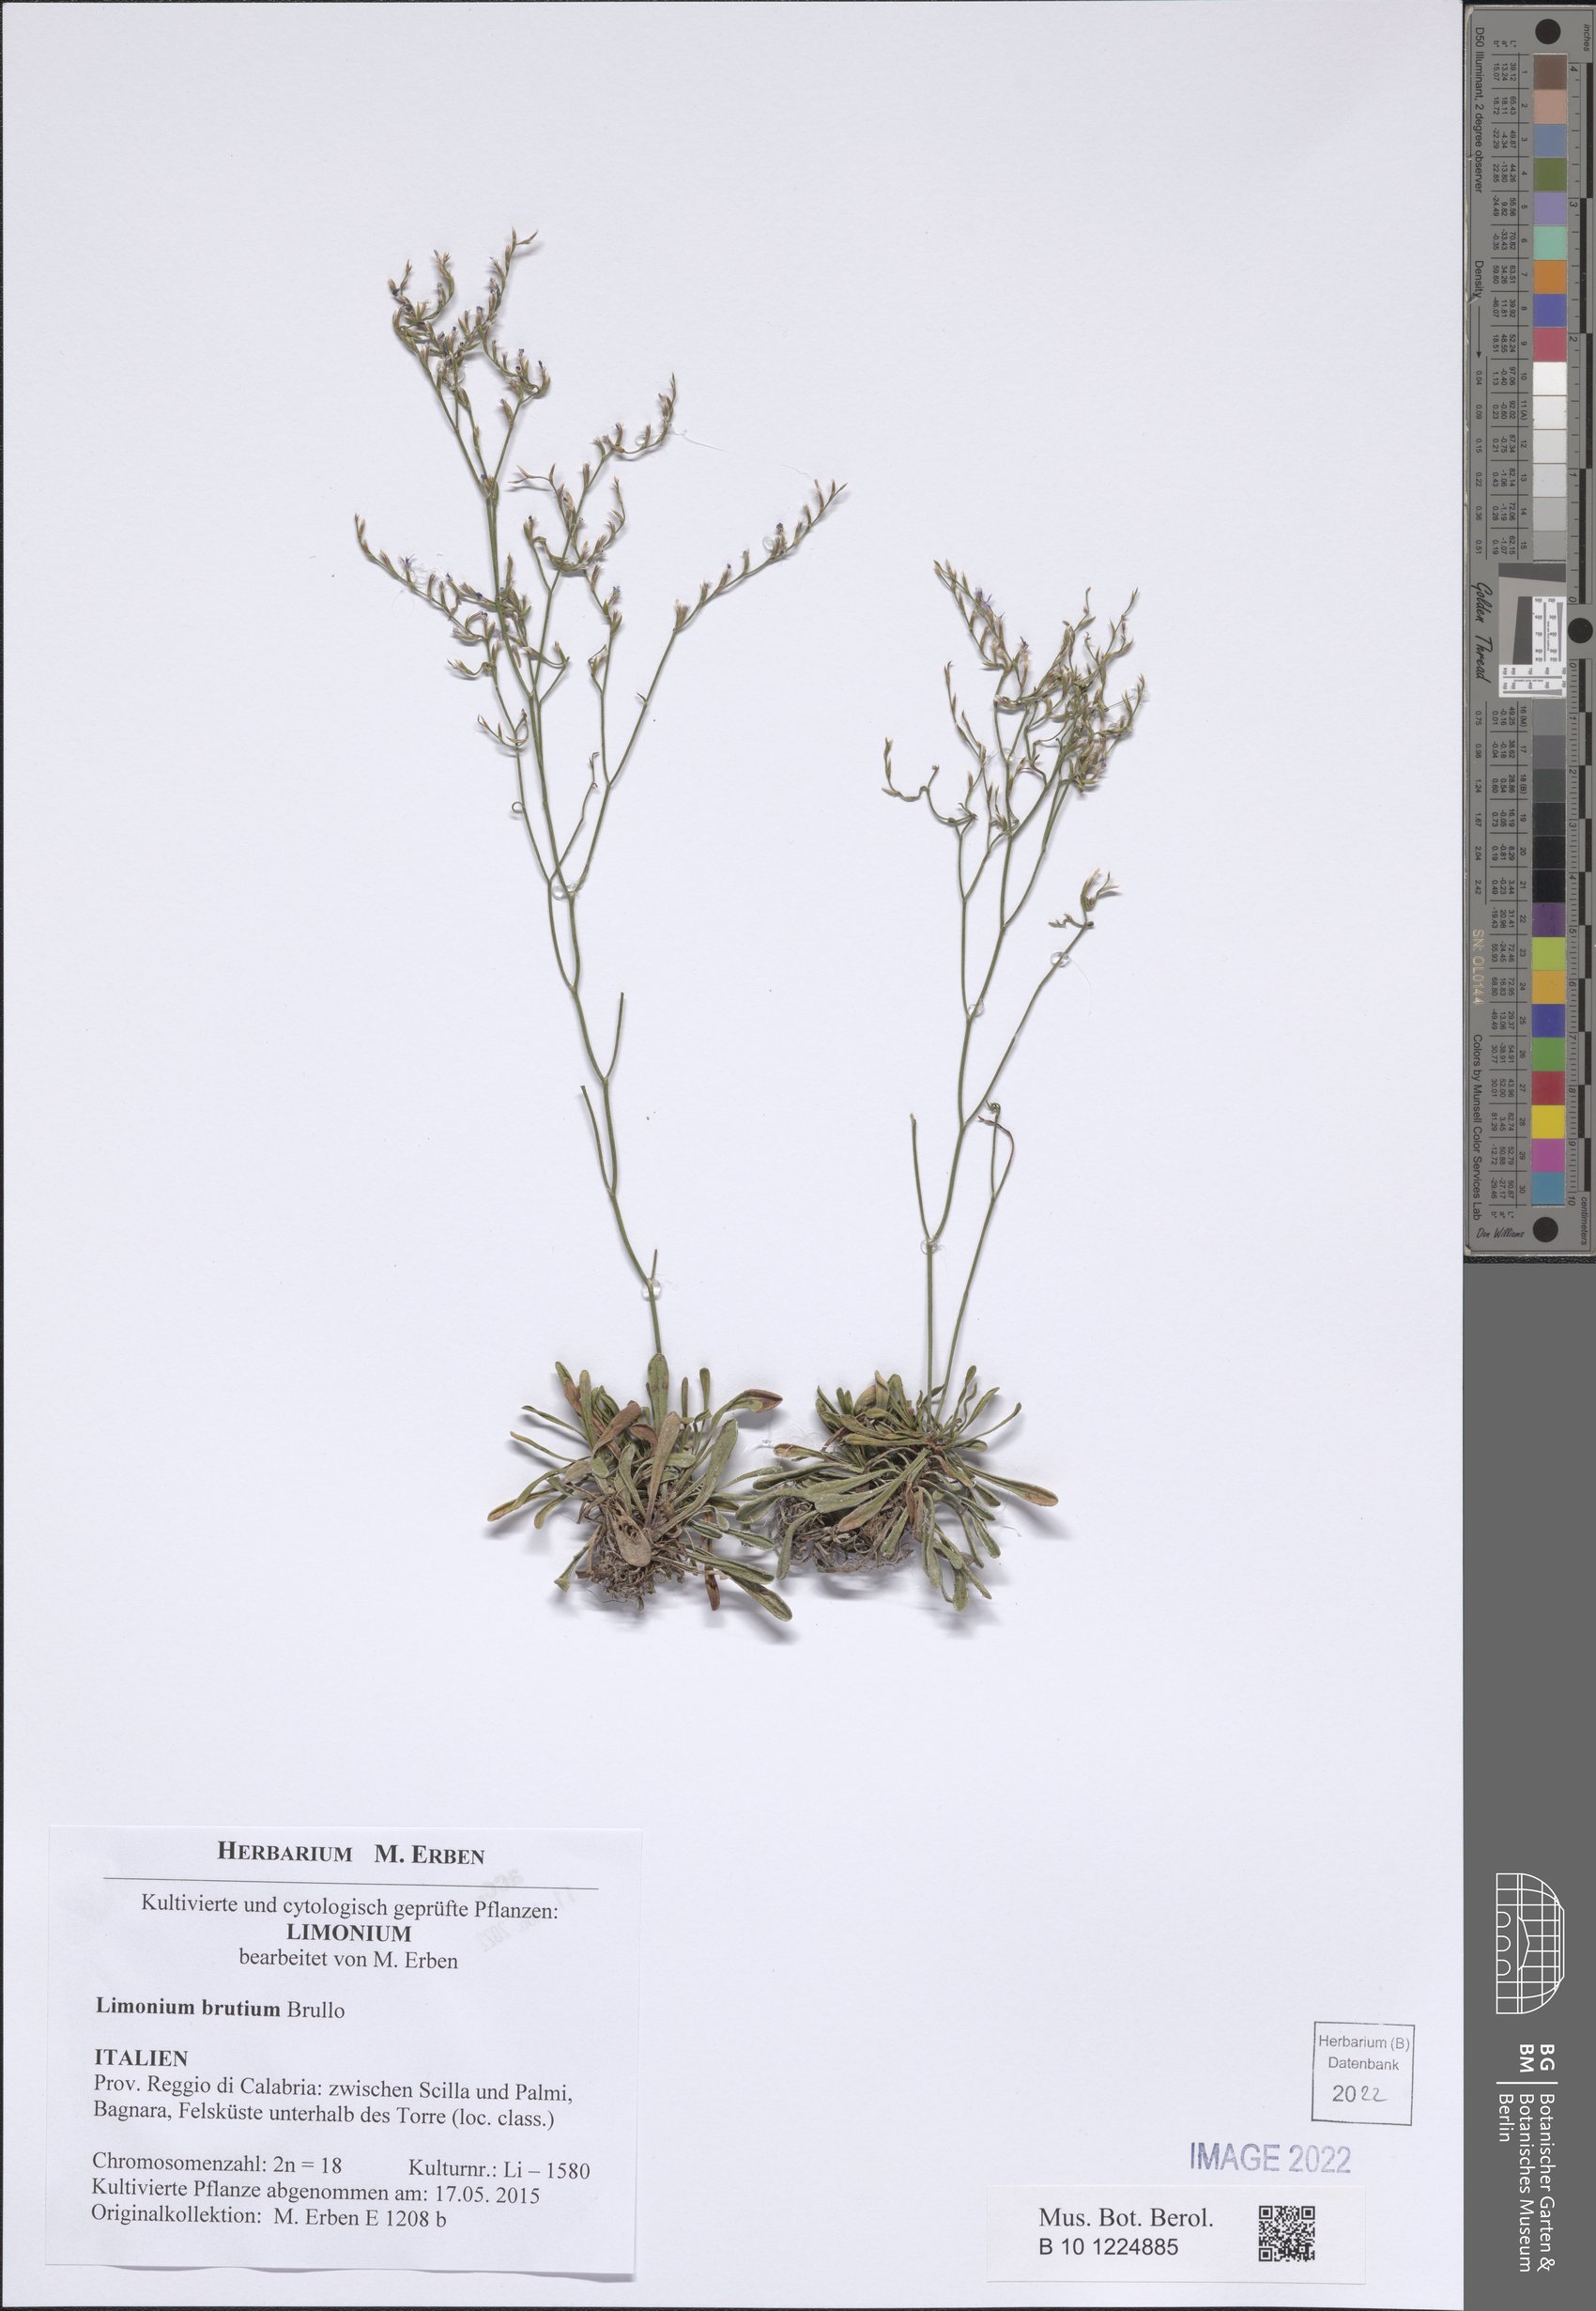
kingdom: Plantae
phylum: Tracheophyta
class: Magnoliopsida
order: Caryophyllales
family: Plumbaginaceae
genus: Limonium
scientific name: Limonium brutium
